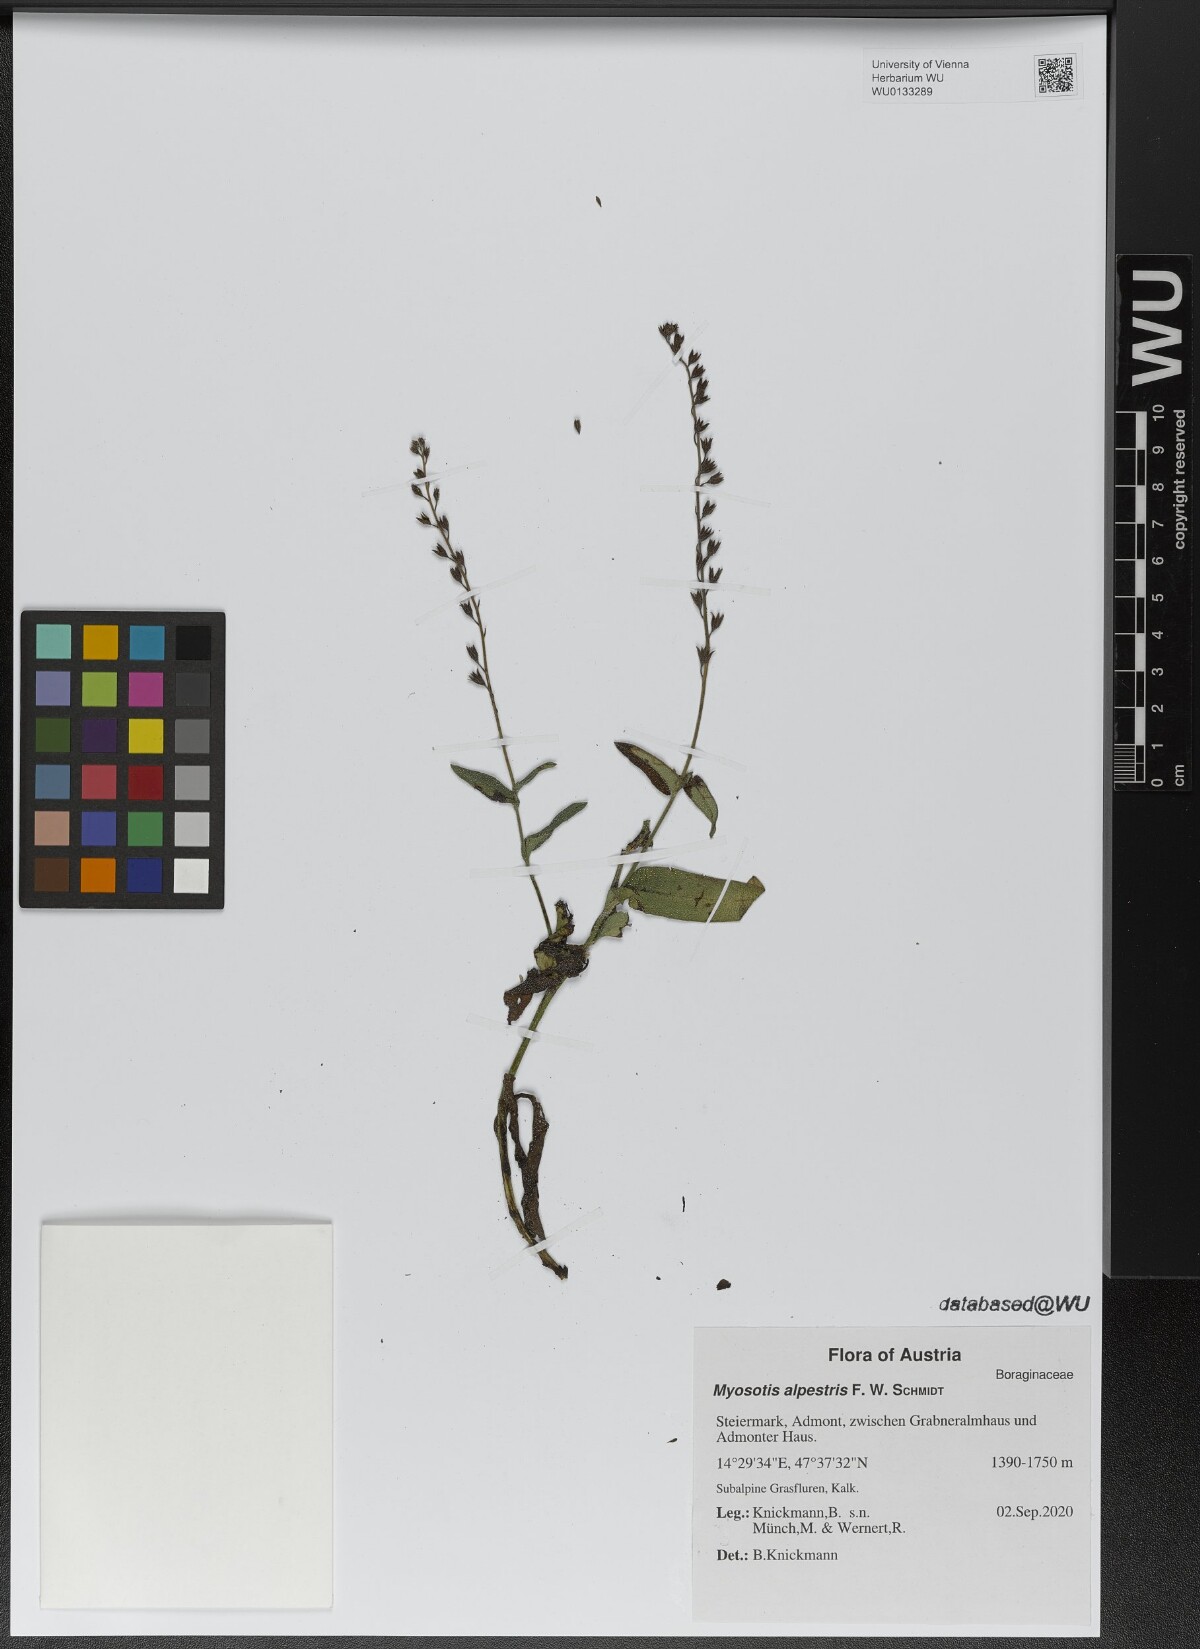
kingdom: Plantae
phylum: Tracheophyta
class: Magnoliopsida
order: Boraginales
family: Boraginaceae
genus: Myosotis
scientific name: Myosotis alpestris
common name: Alpine forget-me-not
